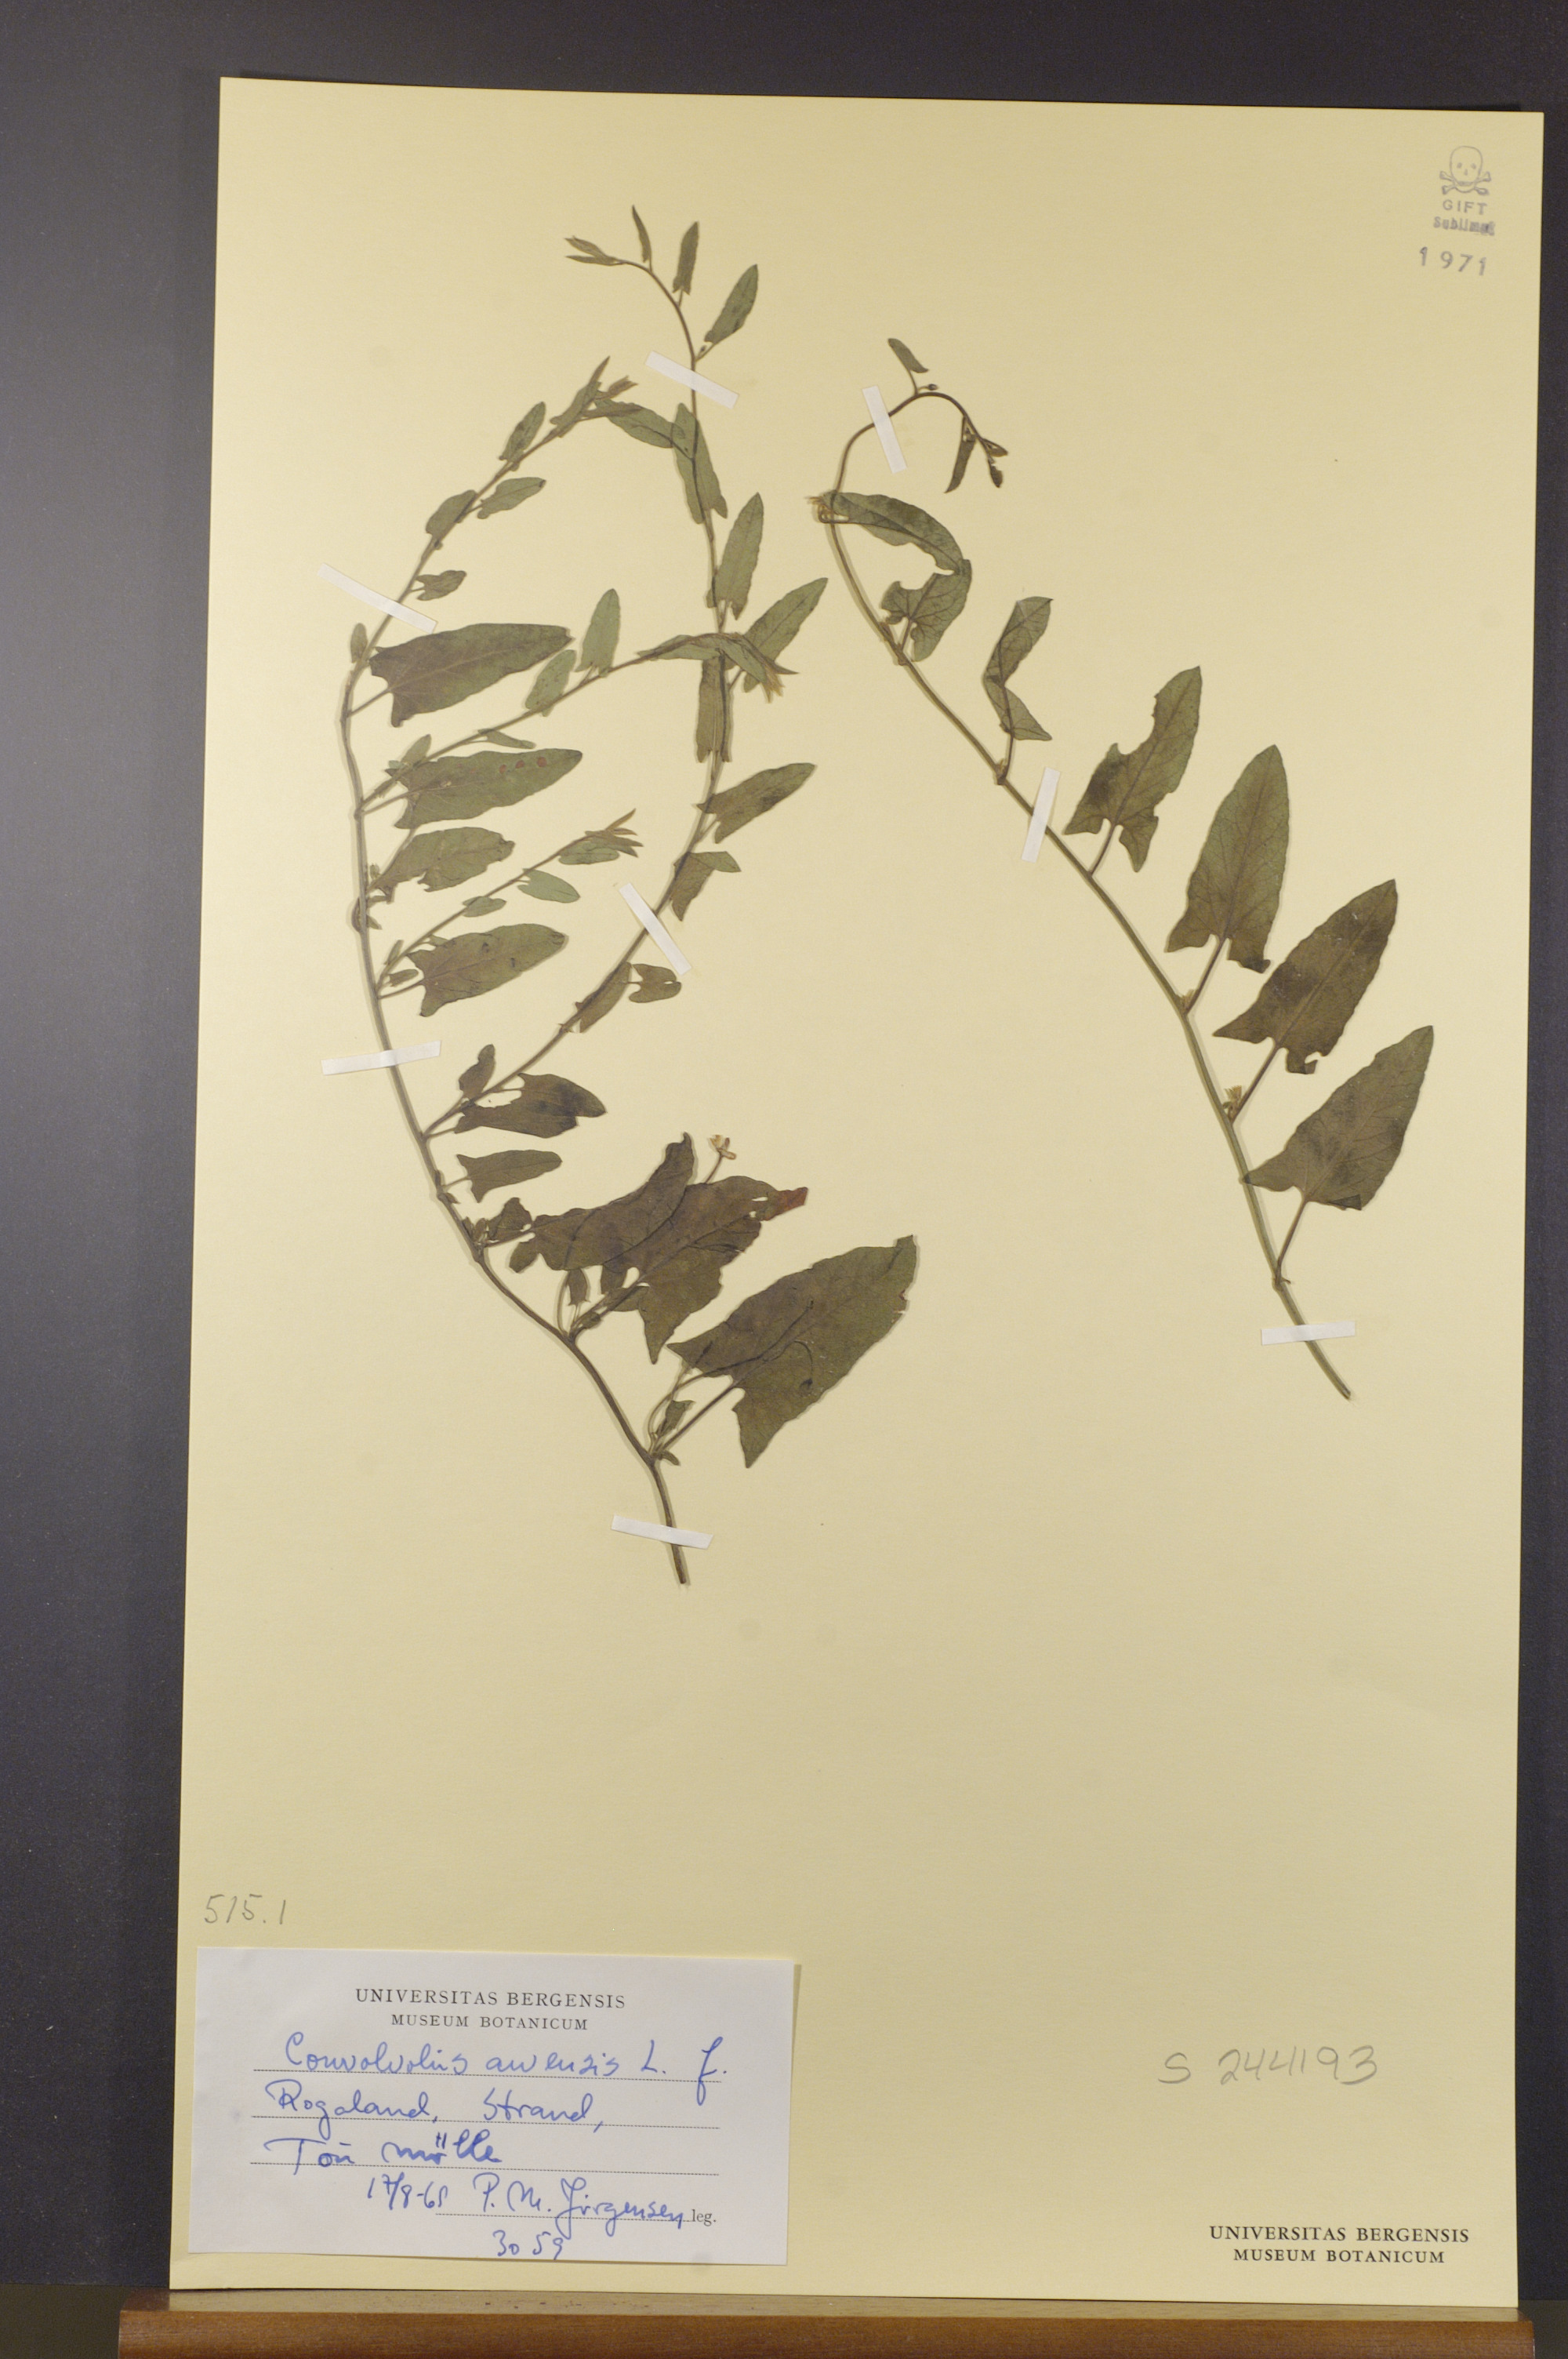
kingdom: Plantae
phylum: Tracheophyta
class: Magnoliopsida
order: Solanales
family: Convolvulaceae
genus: Convolvulus
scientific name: Convolvulus arvensis
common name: Field bindweed
